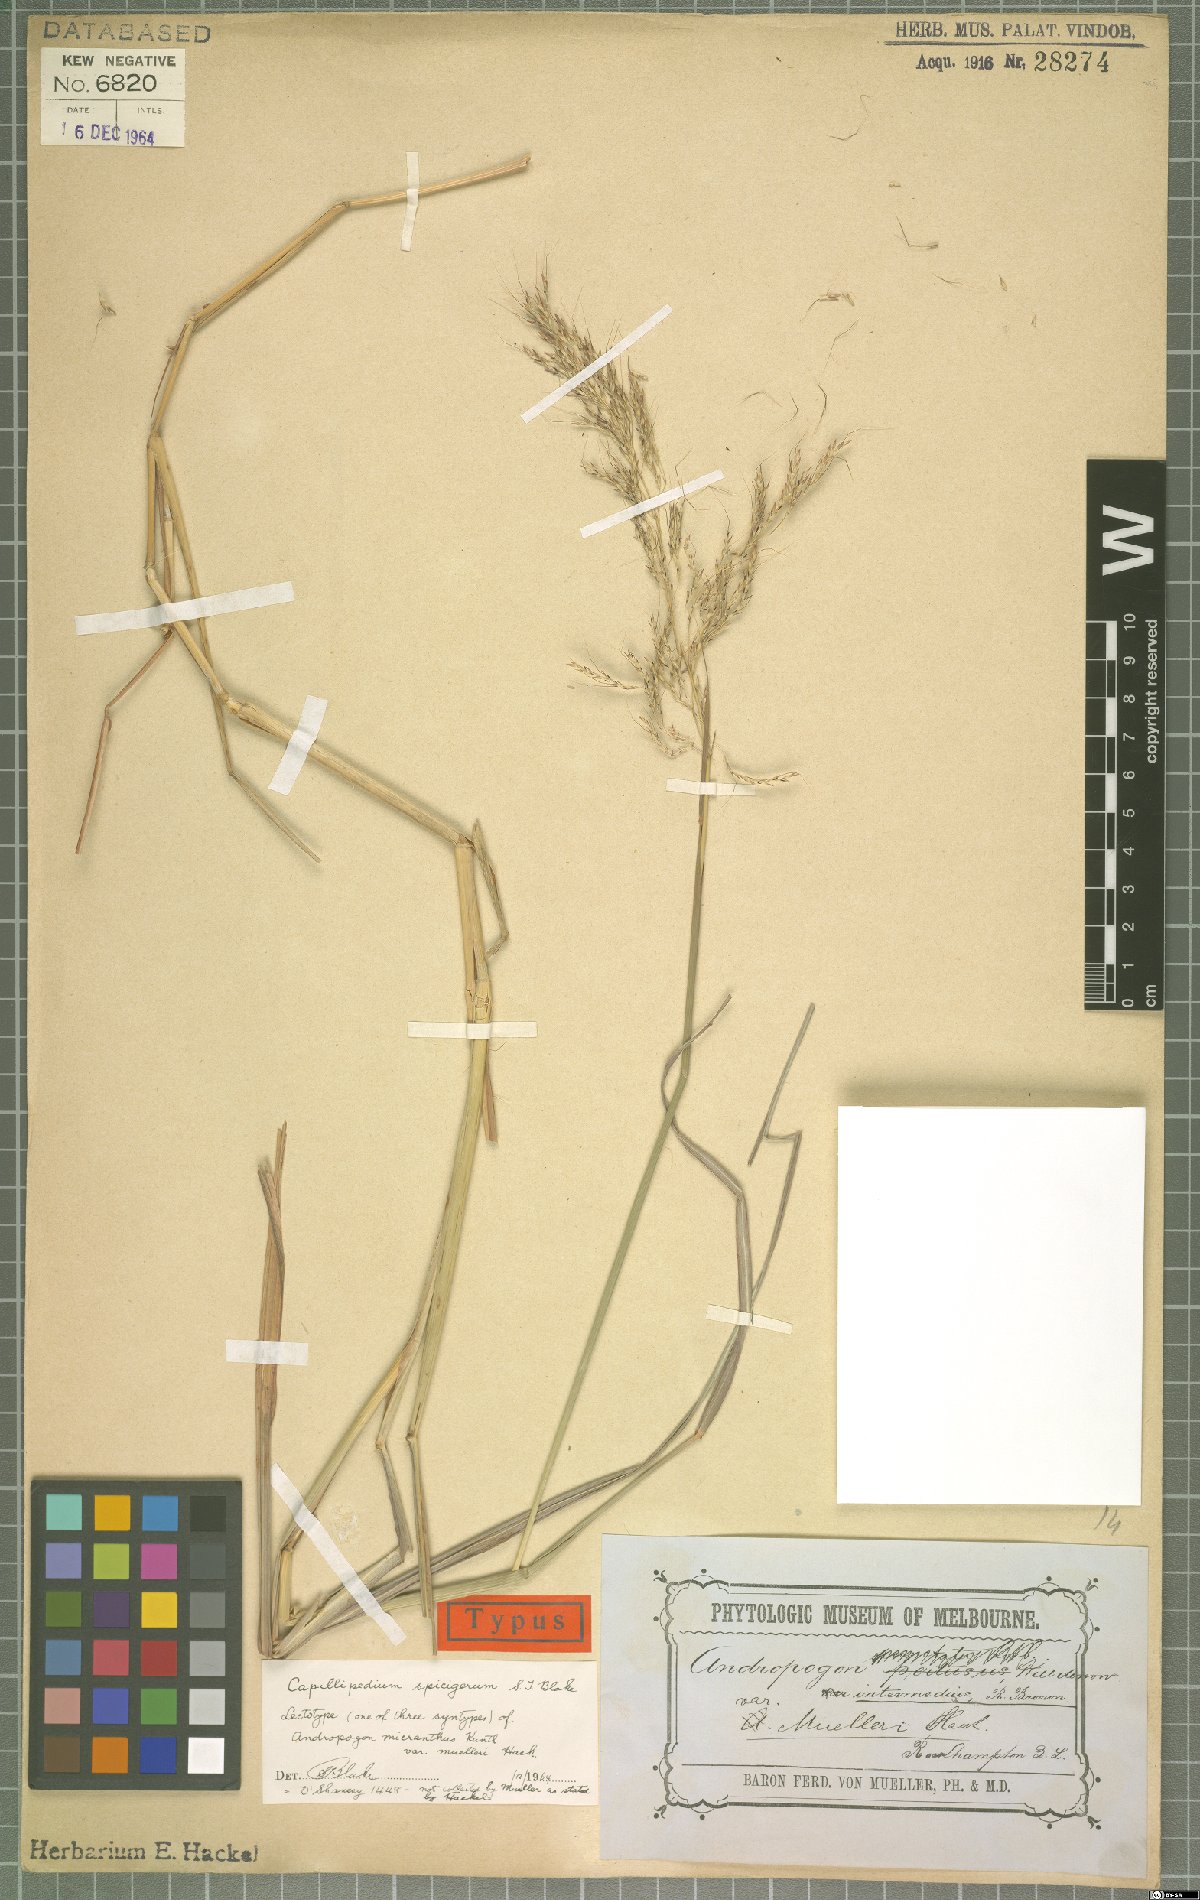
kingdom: Plantae
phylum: Tracheophyta
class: Liliopsida
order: Poales
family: Poaceae
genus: Capillipedium
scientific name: Capillipedium spicigerum
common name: Scented-top grass
